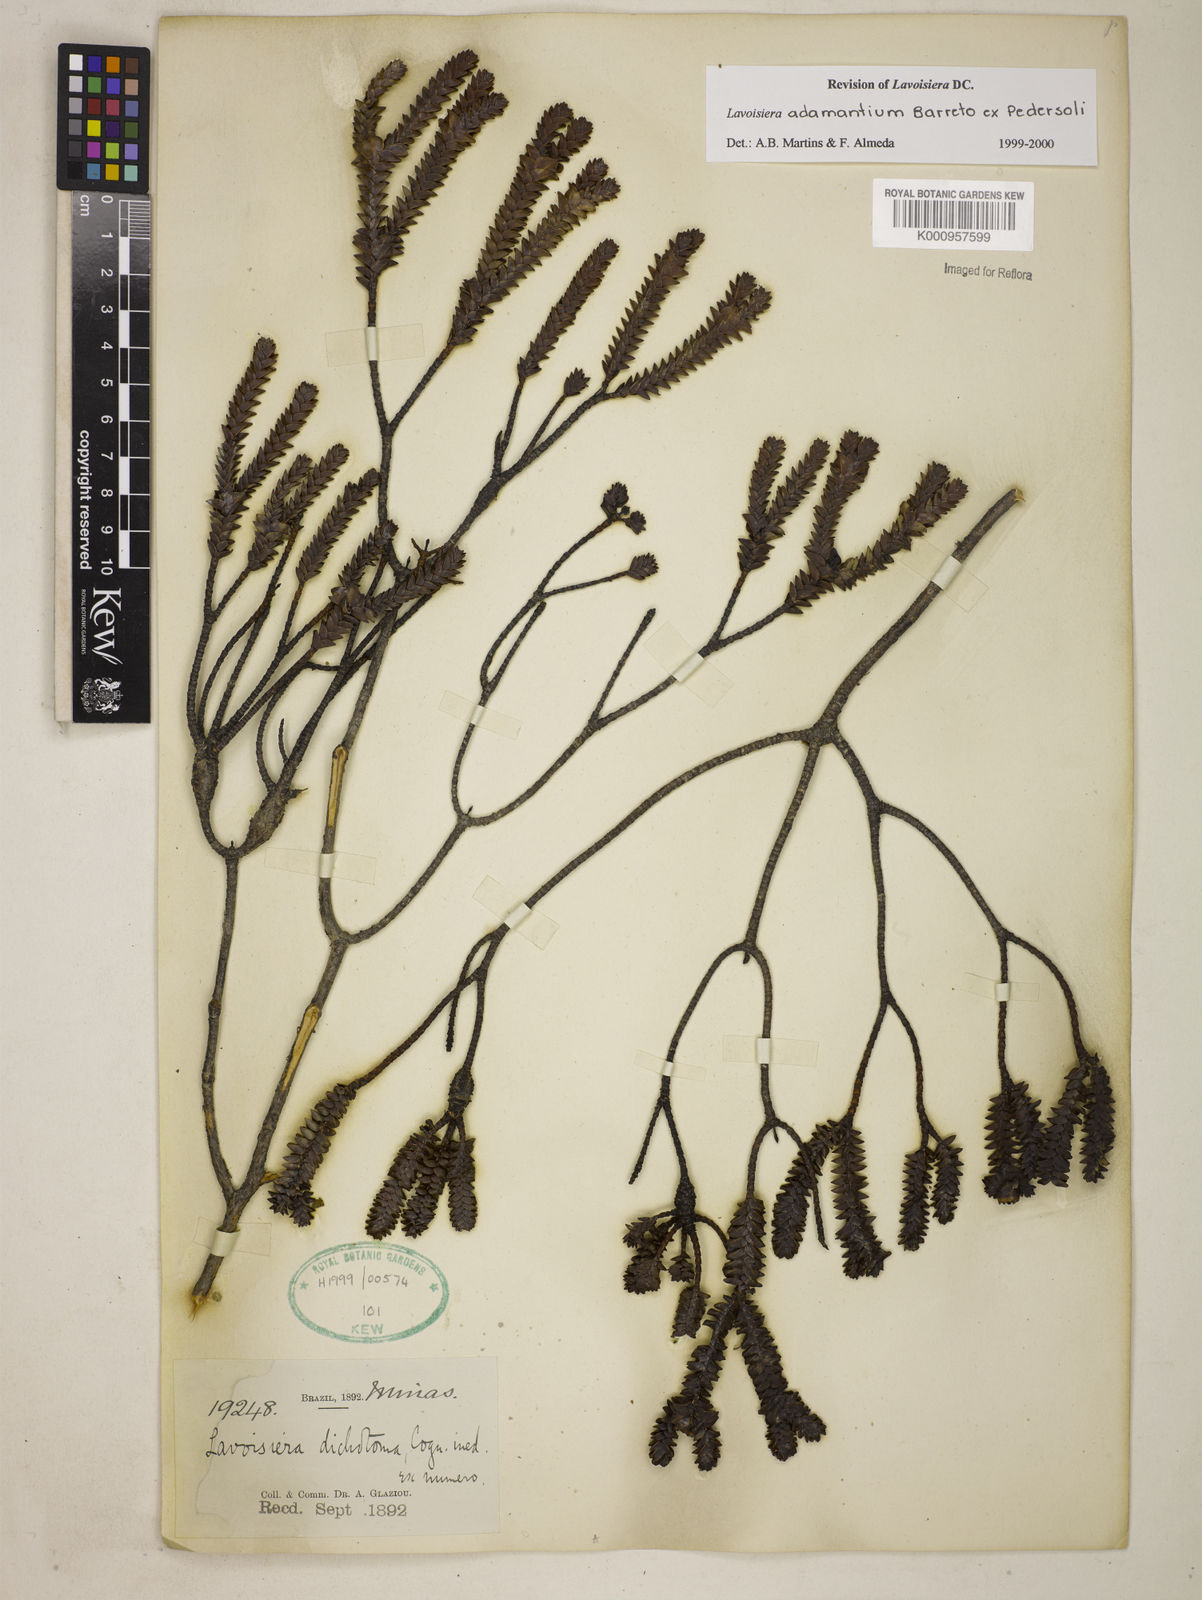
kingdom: Plantae
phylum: Tracheophyta
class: Magnoliopsida
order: Myrtales
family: Melastomataceae
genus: Microlicia
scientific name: Microlicia adamantium
